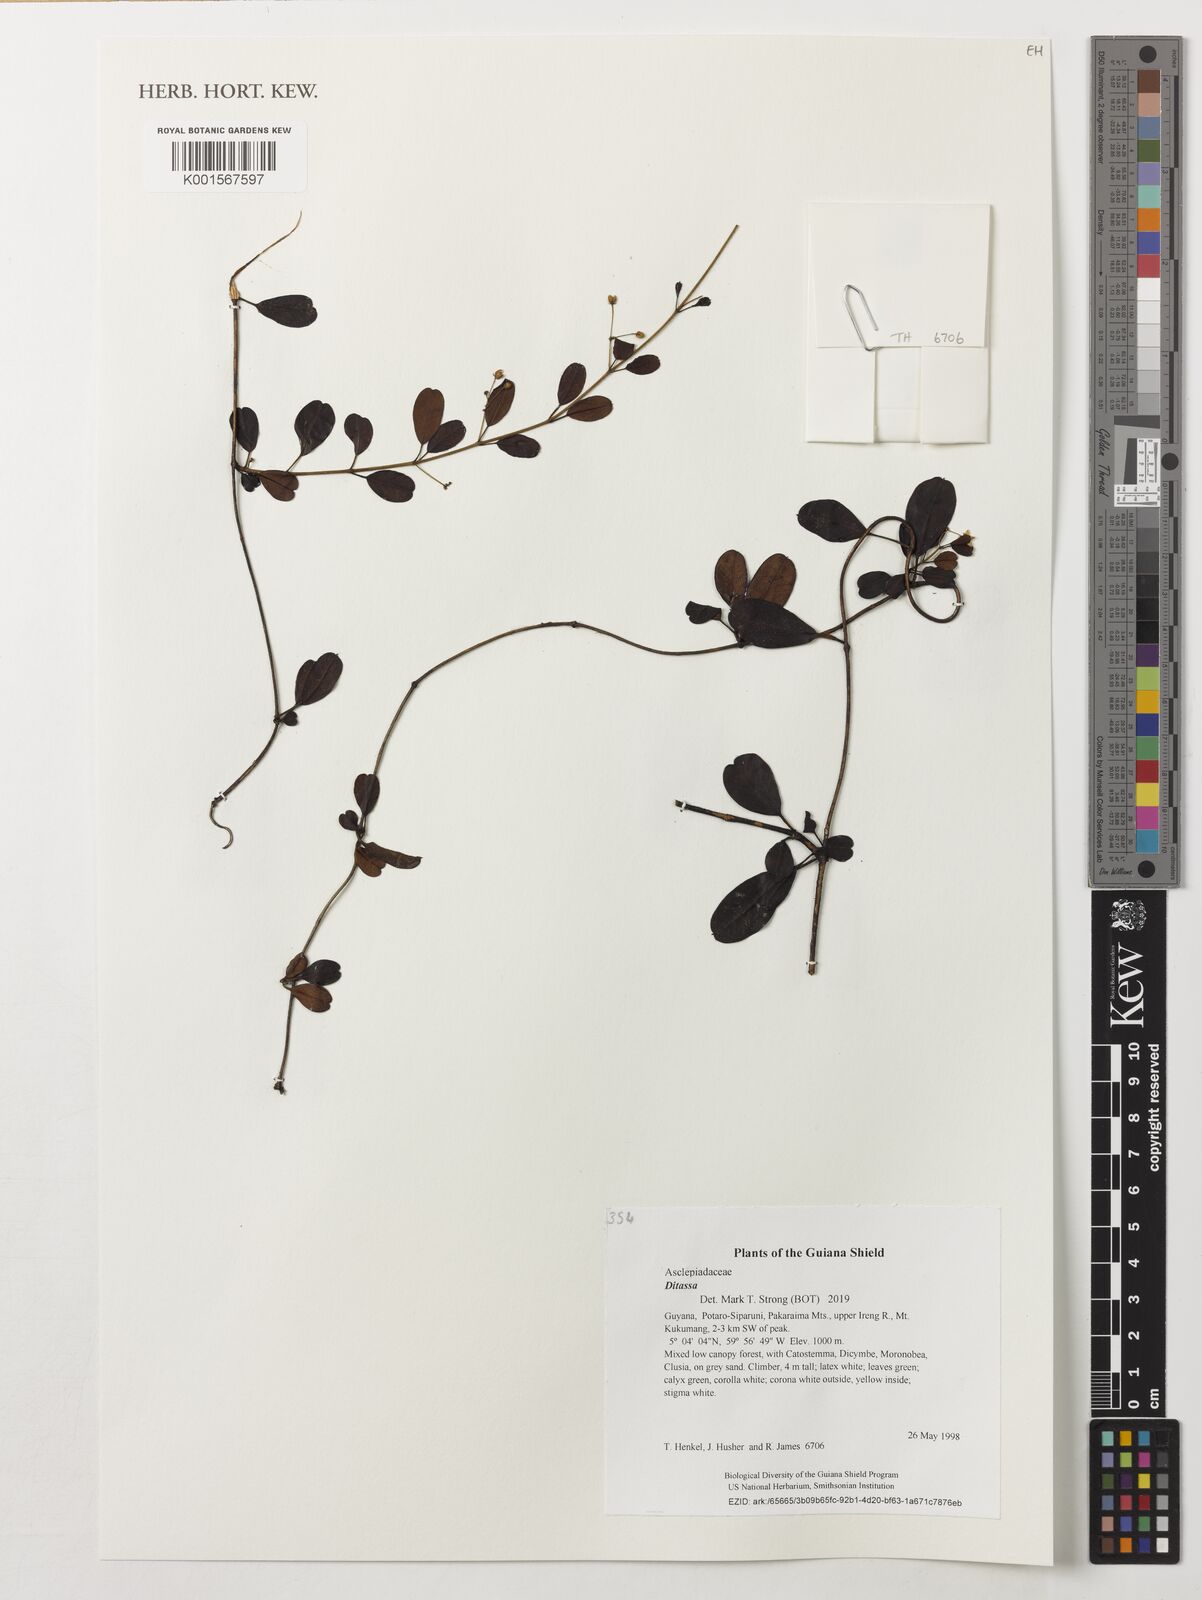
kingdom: Plantae
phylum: Tracheophyta
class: Magnoliopsida
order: Gentianales
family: Apocynaceae
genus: Ditassa
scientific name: Ditassa
